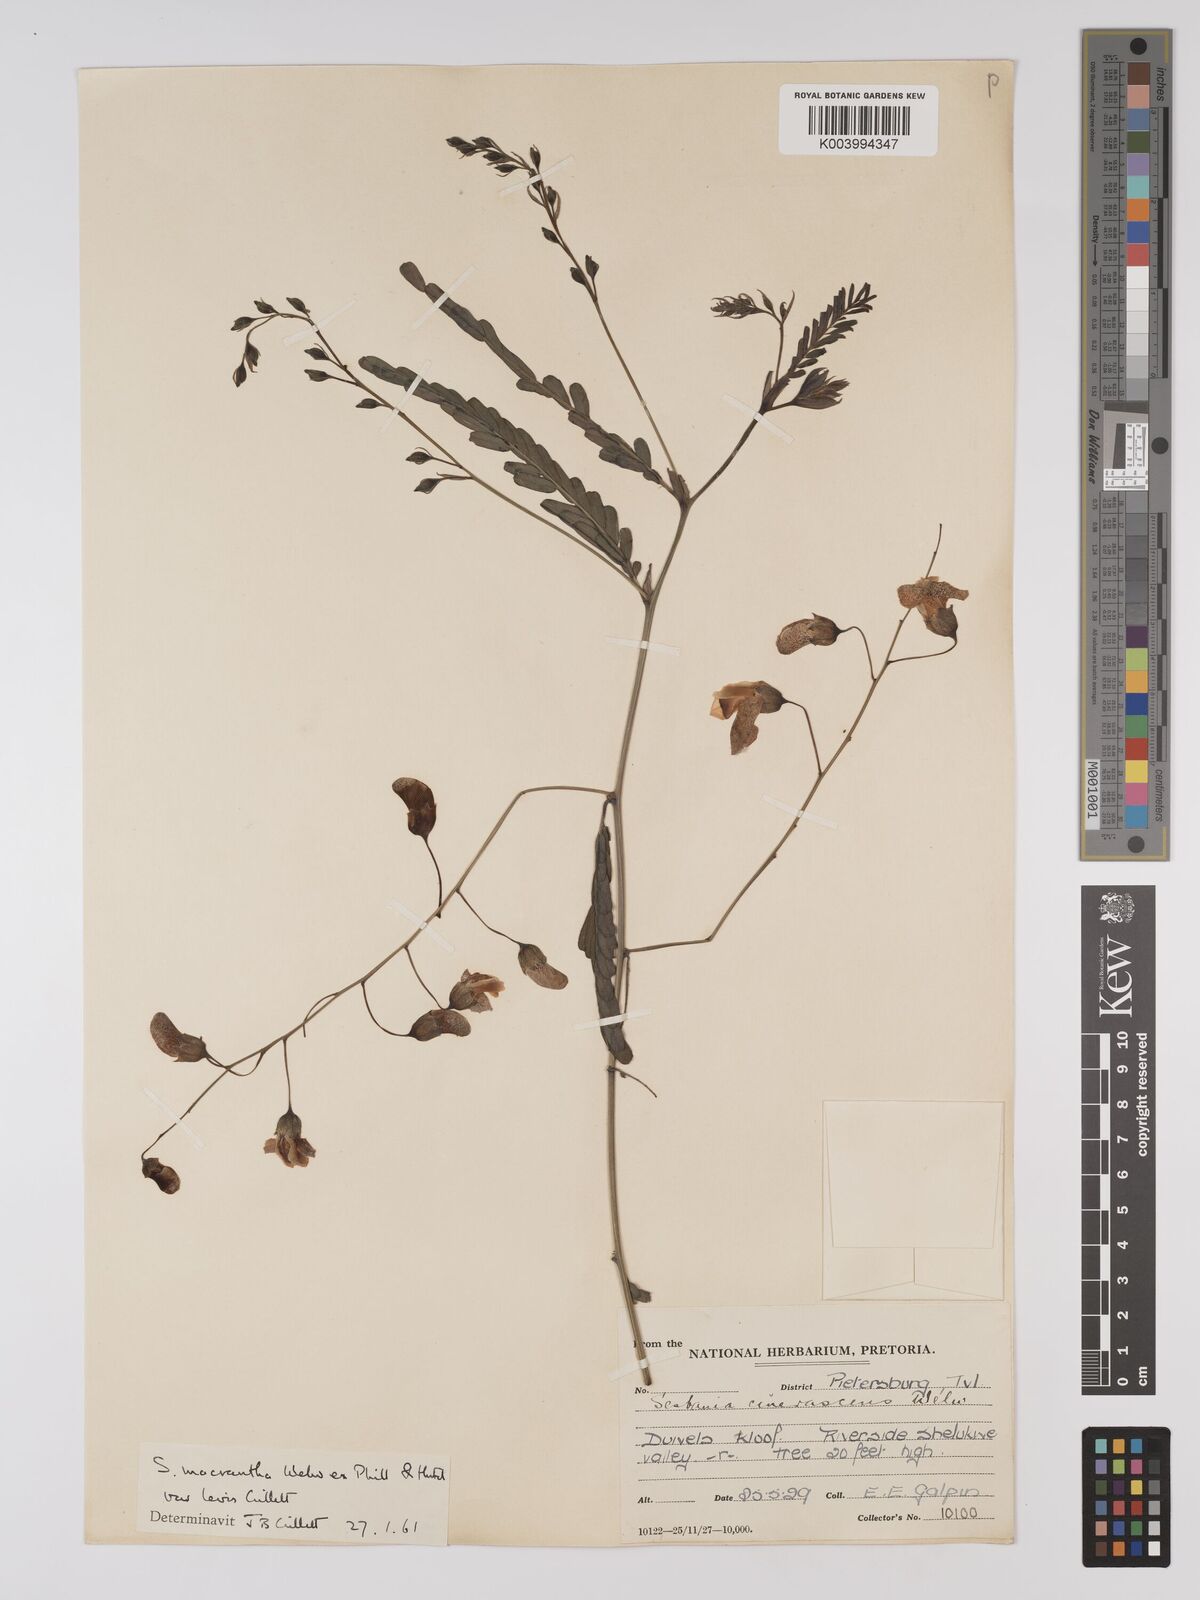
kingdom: Plantae
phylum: Tracheophyta
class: Magnoliopsida
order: Fabales
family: Fabaceae
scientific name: Fabaceae
